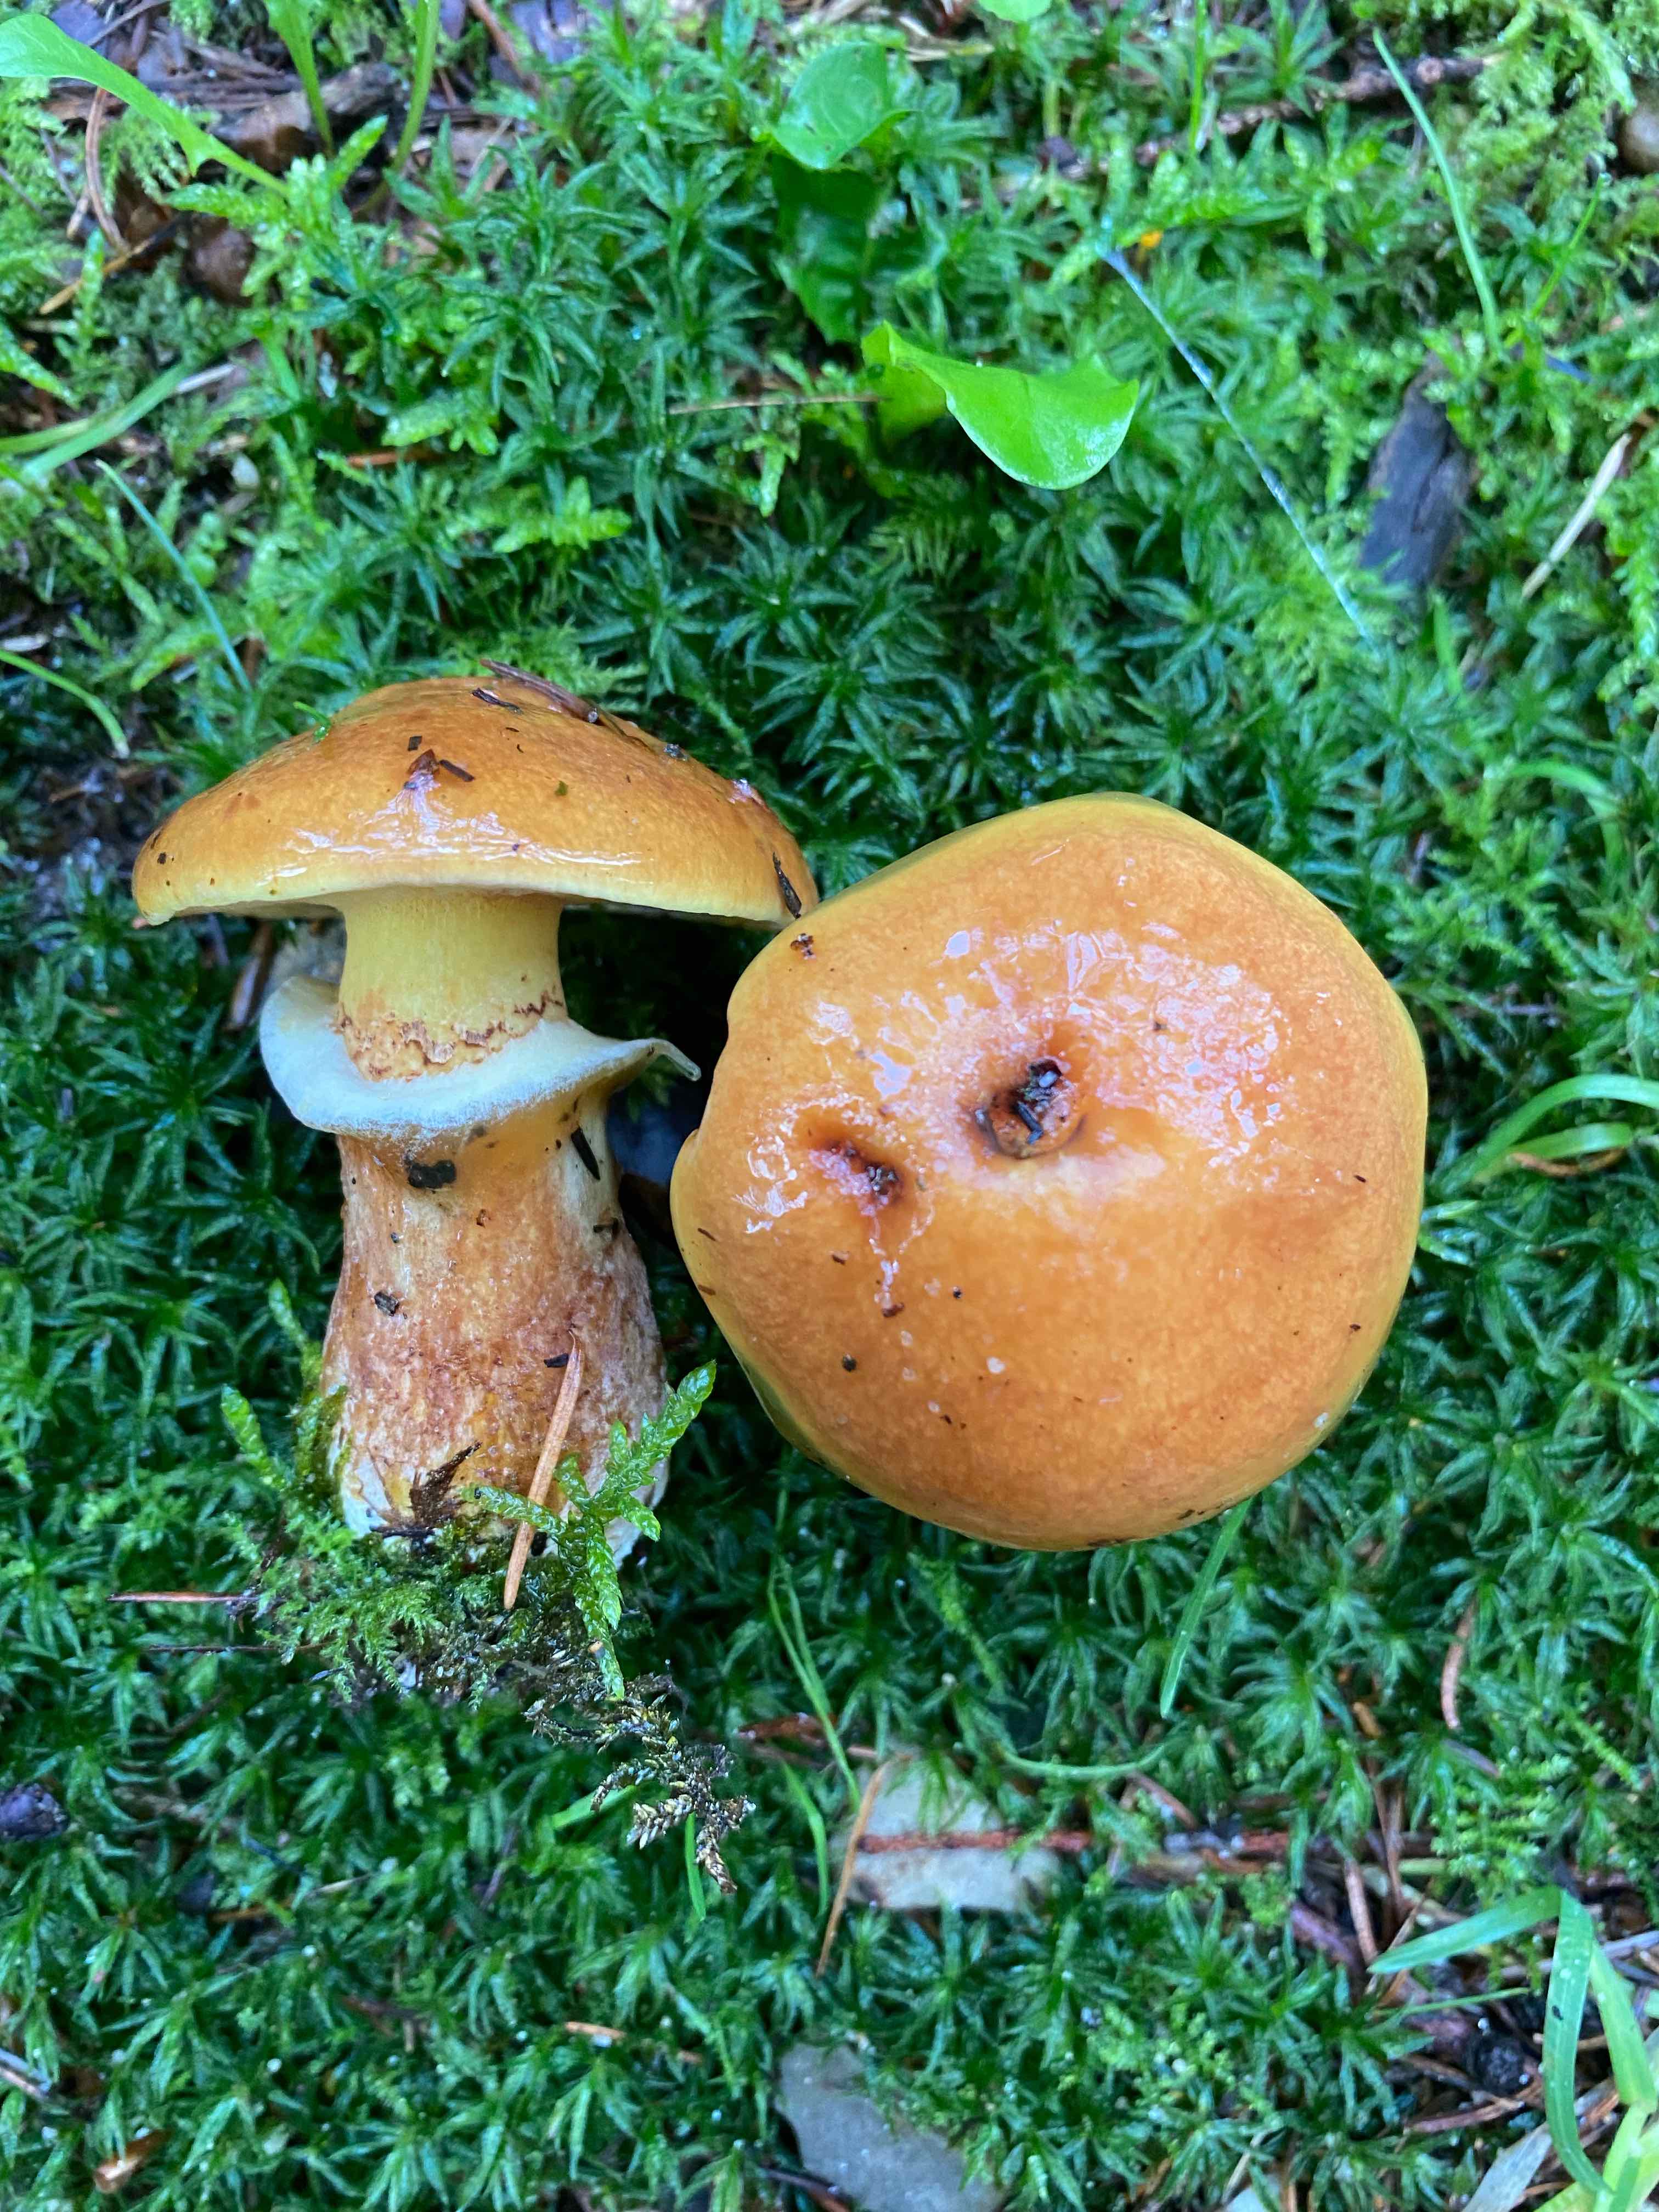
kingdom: Fungi
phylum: Basidiomycota
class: Agaricomycetes
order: Boletales
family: Suillaceae
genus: Suillus
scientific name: Suillus grevillei
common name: lærke-slimrørhat
